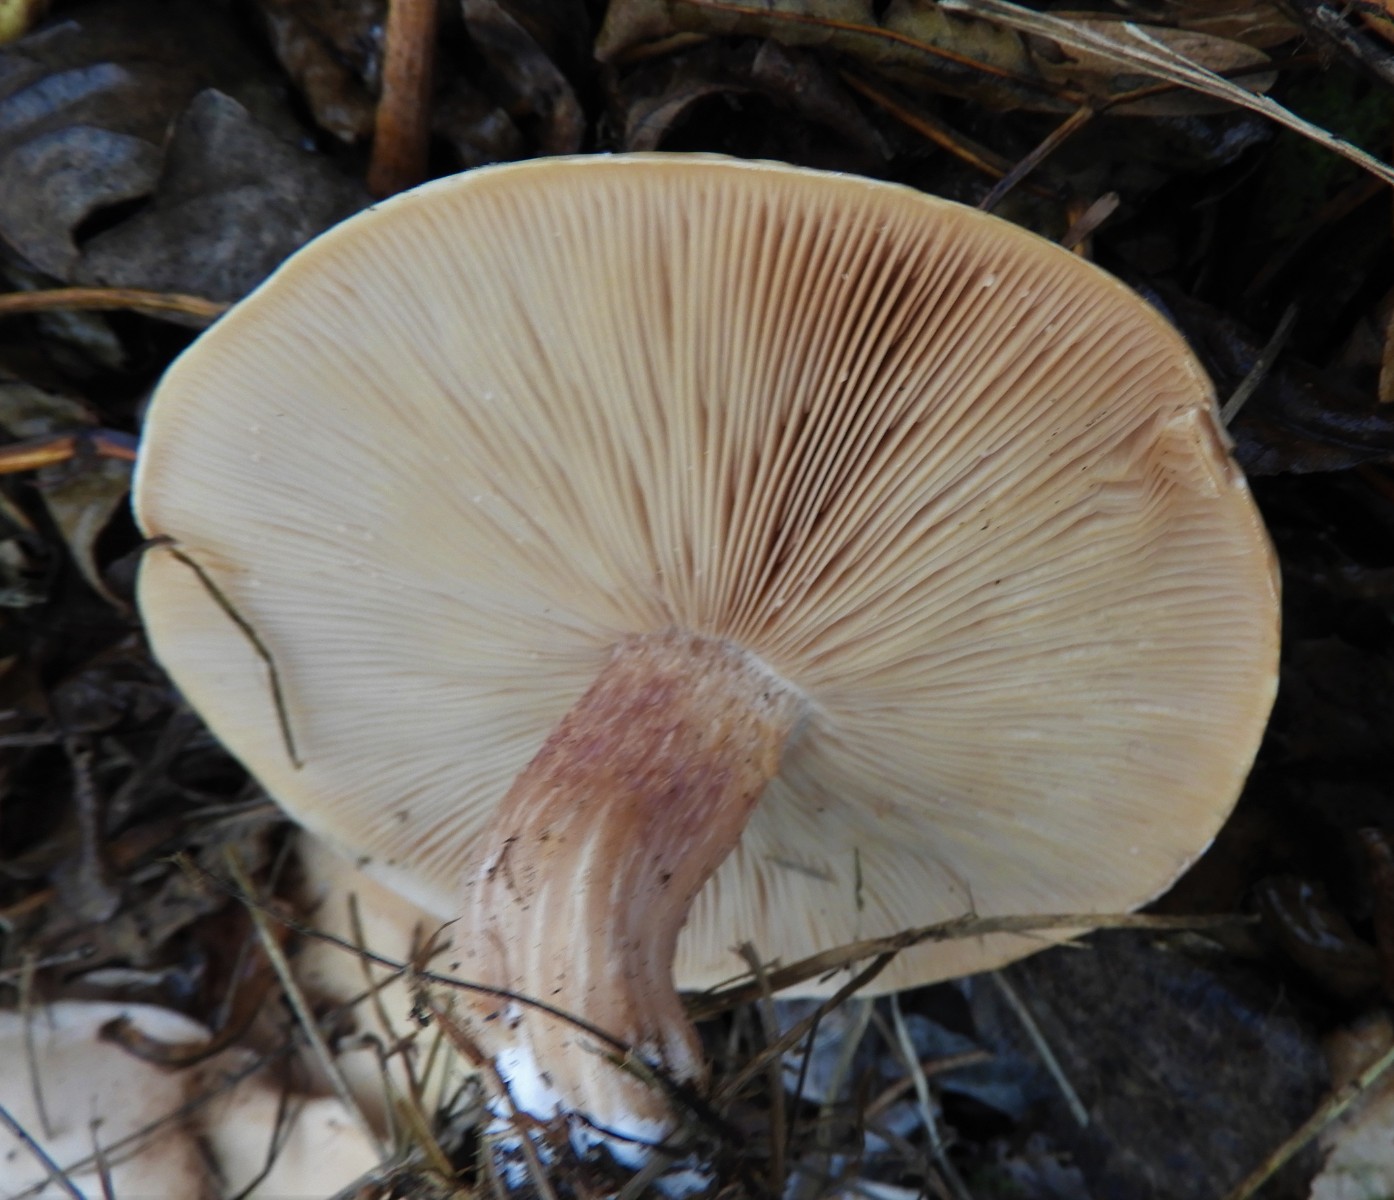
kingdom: Fungi
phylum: Basidiomycota
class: Agaricomycetes
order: Agaricales
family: Tricholomataceae
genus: Lepista
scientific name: Lepista personata
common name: bleg hekseringshat
